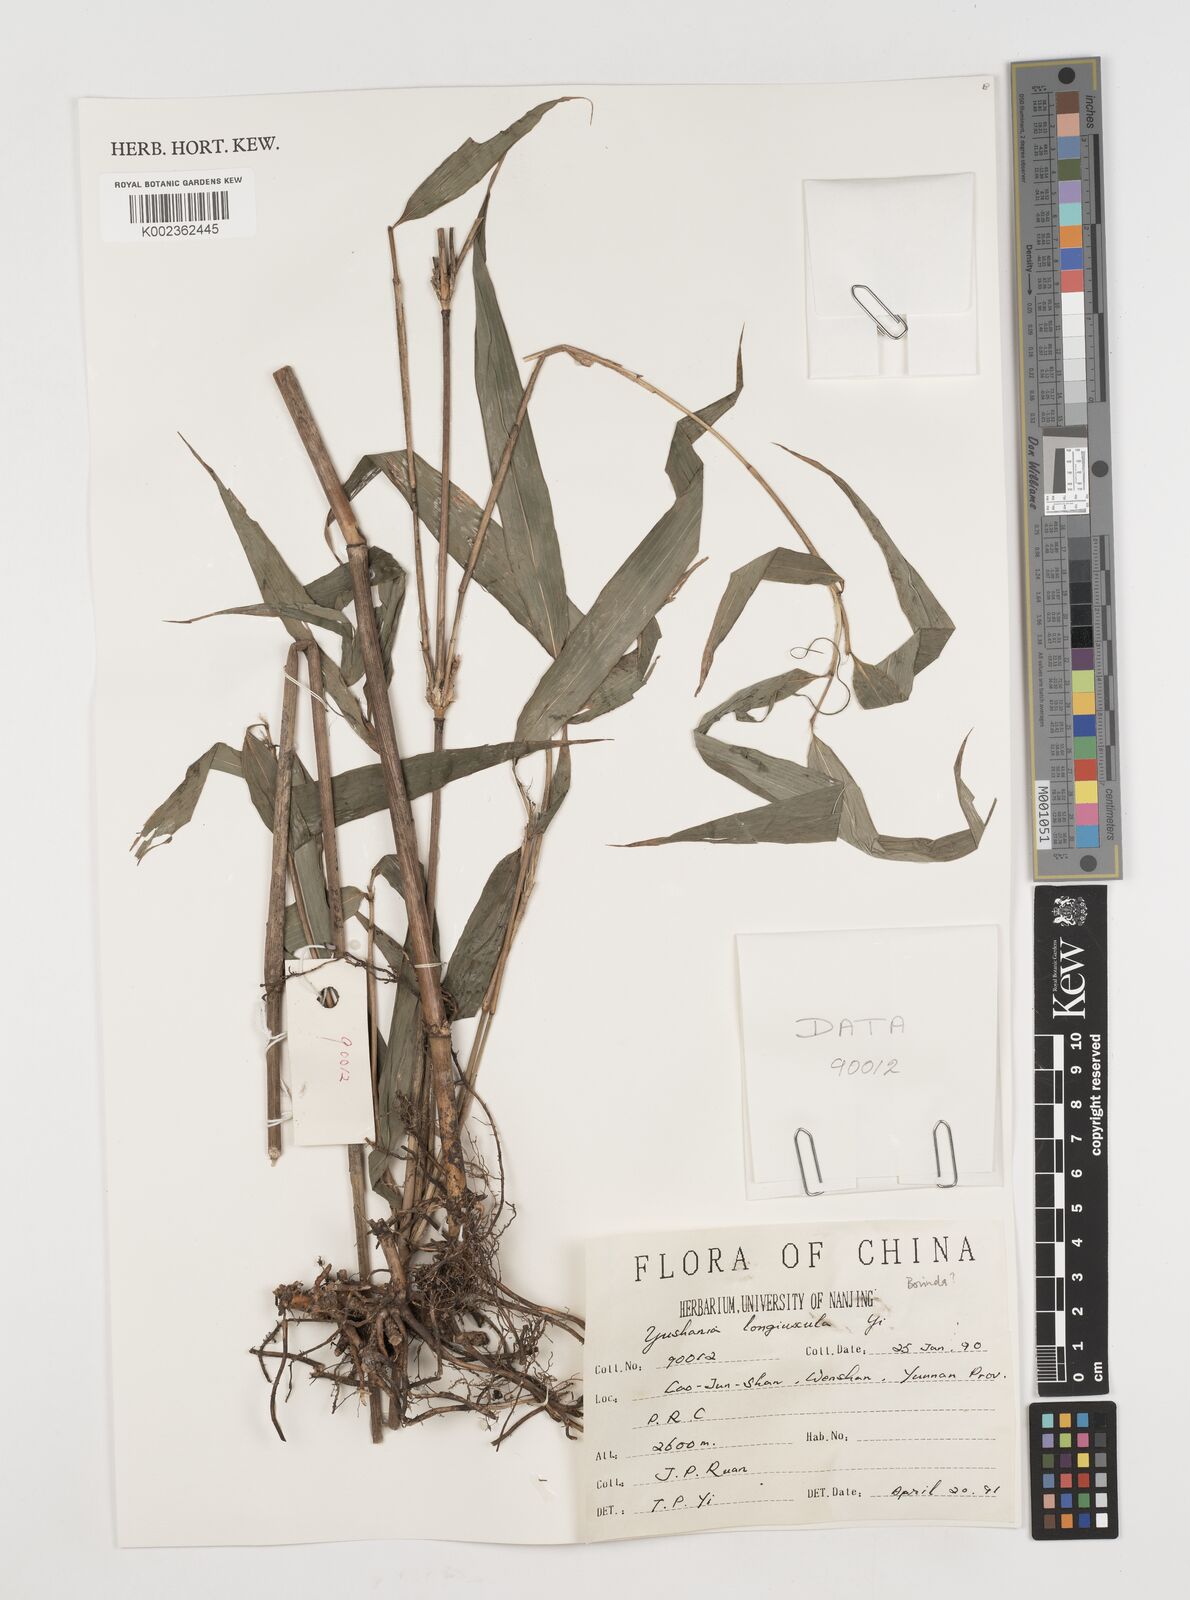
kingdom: Plantae
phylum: Tracheophyta
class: Liliopsida
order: Poales
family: Poaceae
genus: Chimonocalamus
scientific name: Chimonocalamus longiusculus
